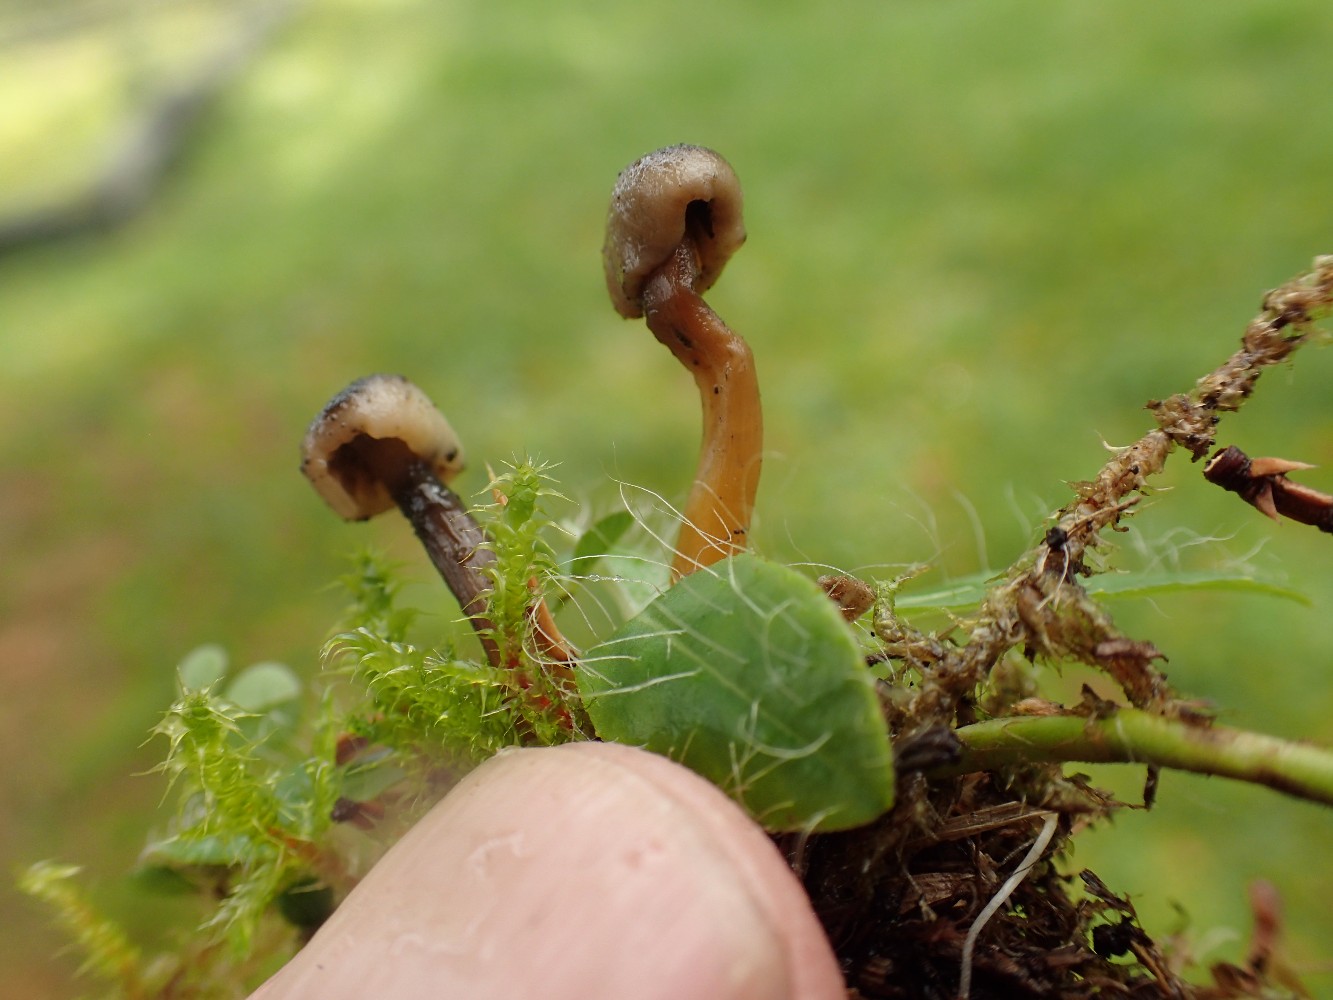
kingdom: Fungi
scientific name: Fungi
